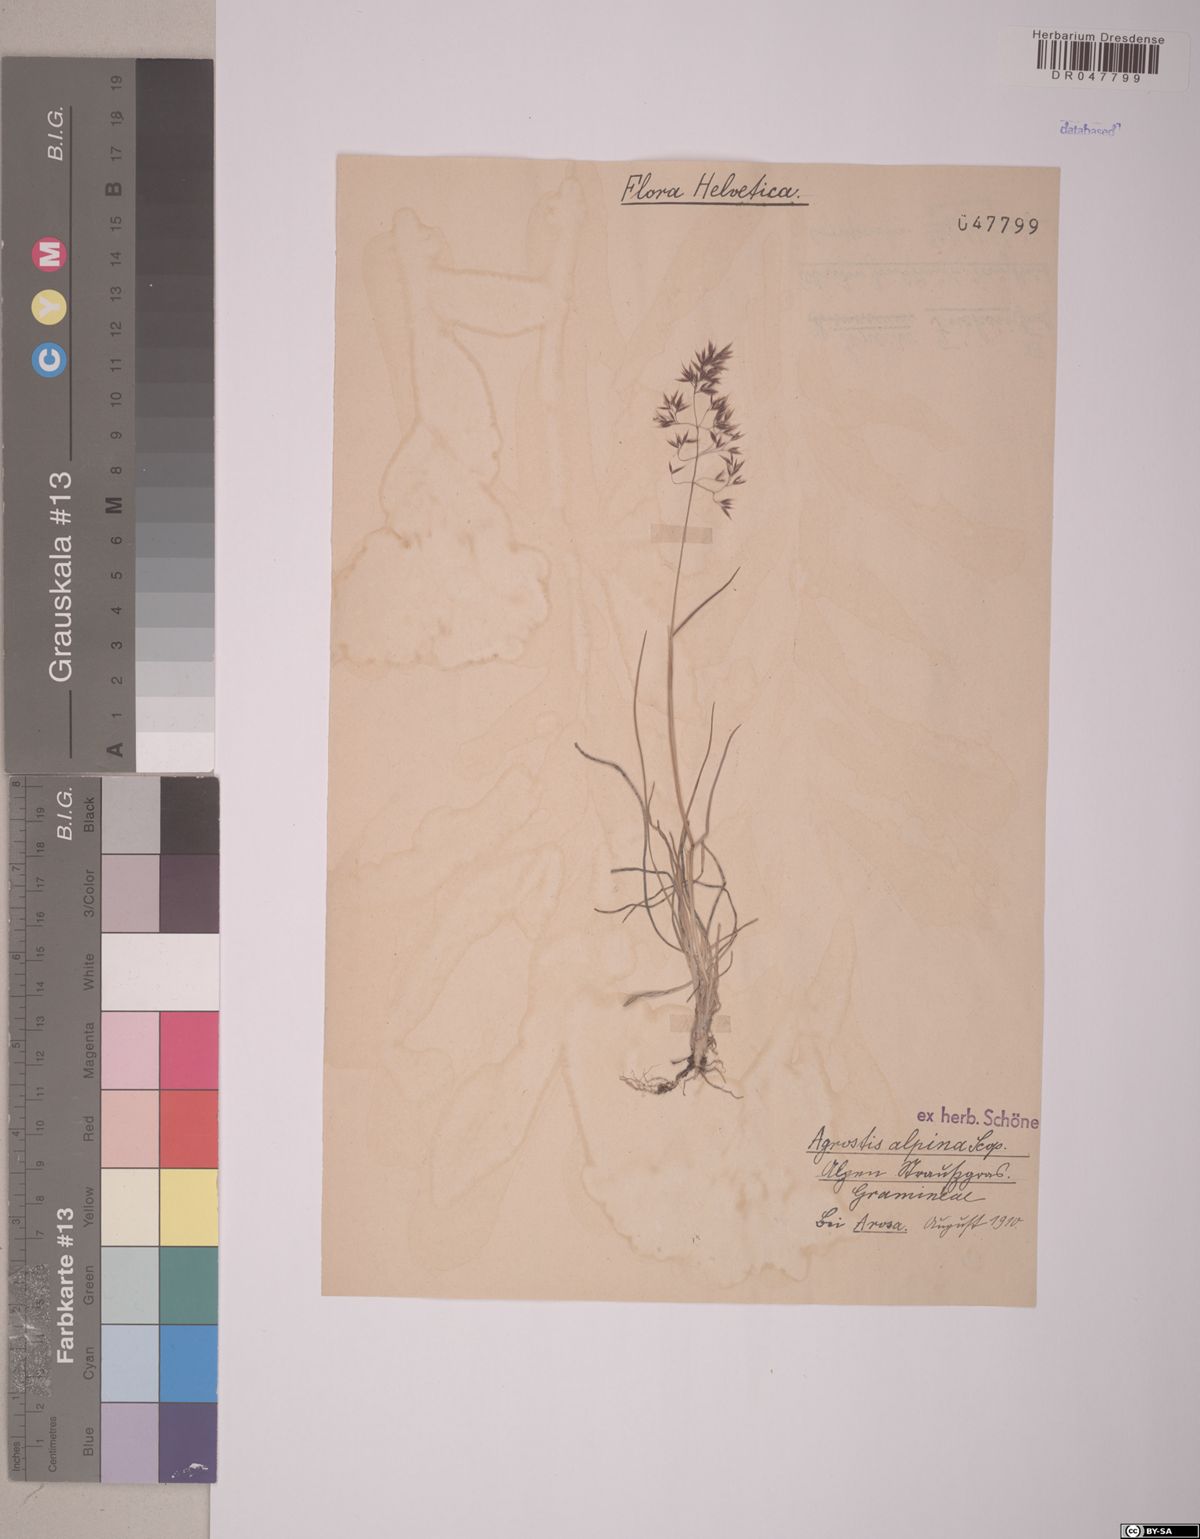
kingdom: Plantae
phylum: Tracheophyta
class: Liliopsida
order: Poales
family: Poaceae
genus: Alpagrostis
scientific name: Alpagrostis alpina
